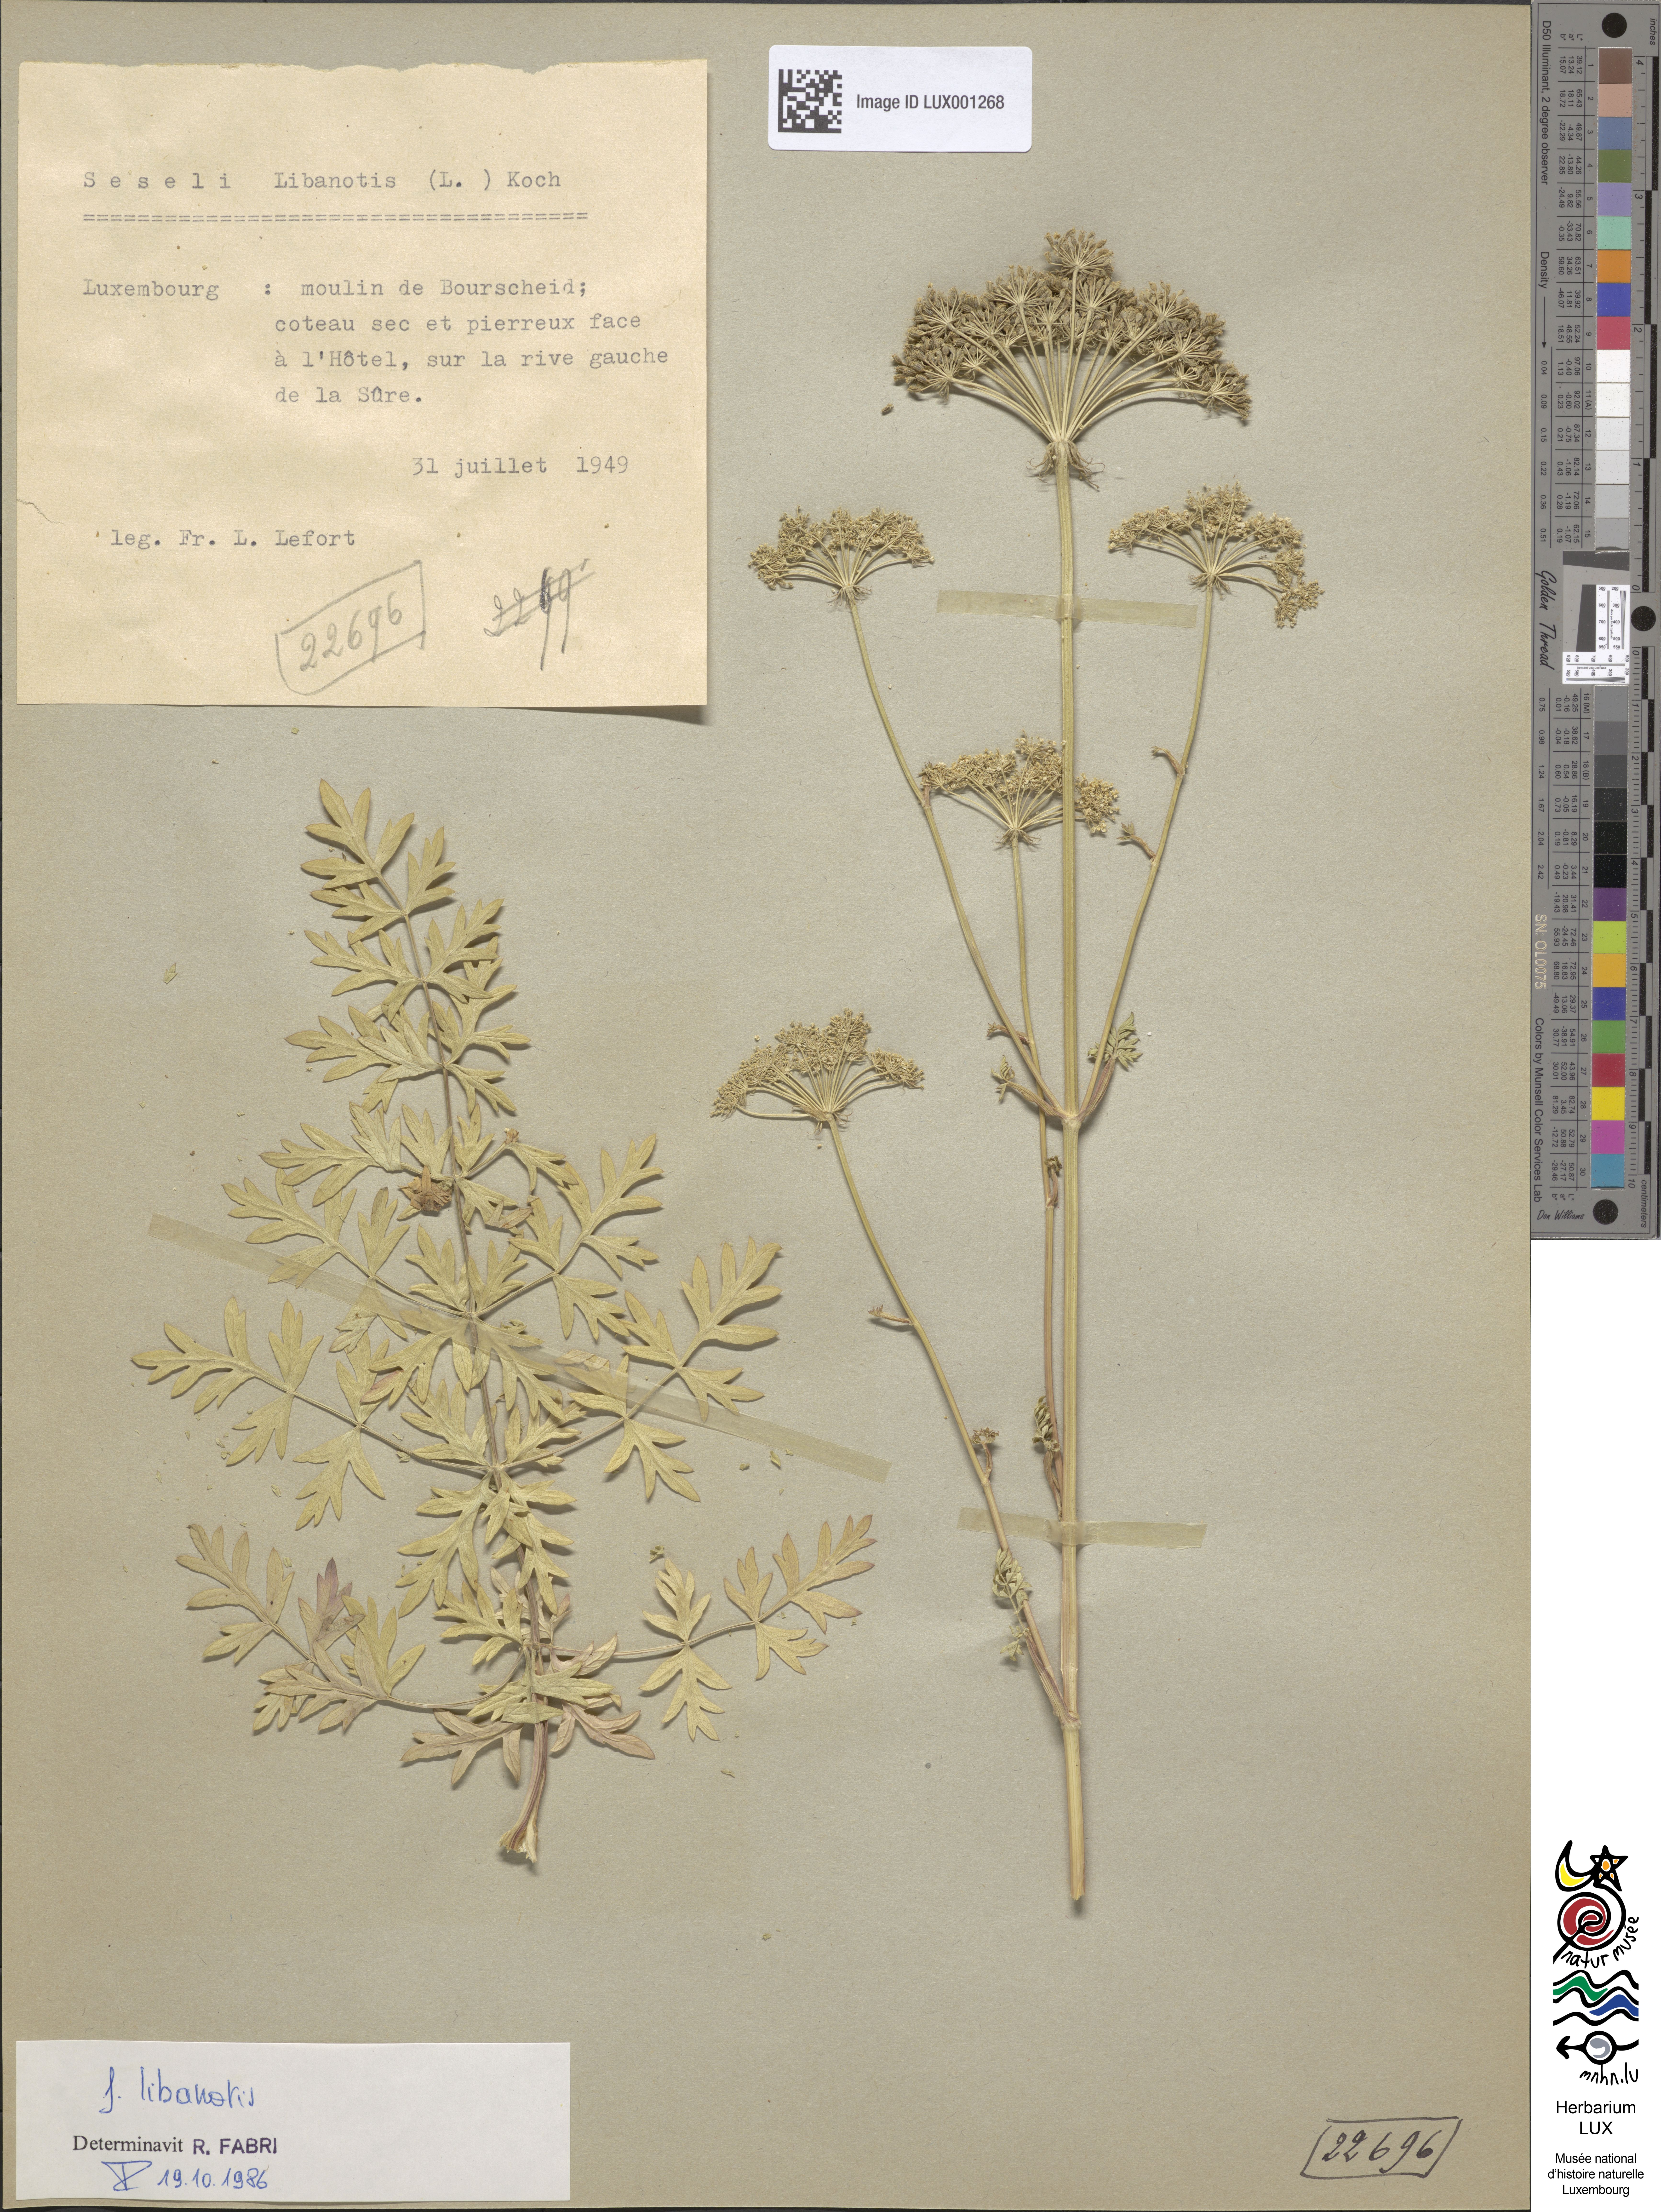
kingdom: Plantae
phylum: Tracheophyta
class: Magnoliopsida
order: Apiales
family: Apiaceae
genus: Seseli
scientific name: Seseli libanotis
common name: Mooncarrot
